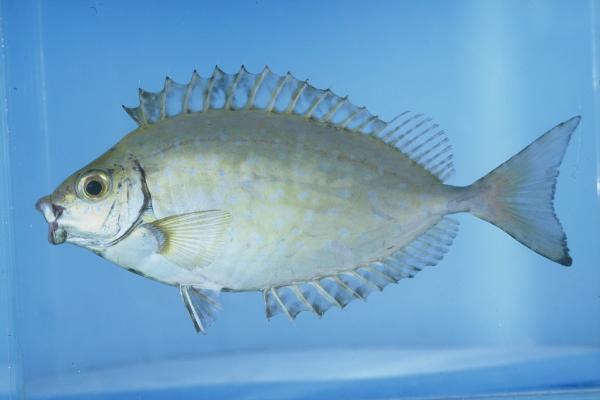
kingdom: Animalia
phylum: Chordata
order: Perciformes
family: Siganidae
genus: Siganus
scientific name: Siganus sutor
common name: Shoemaker spinefoot
